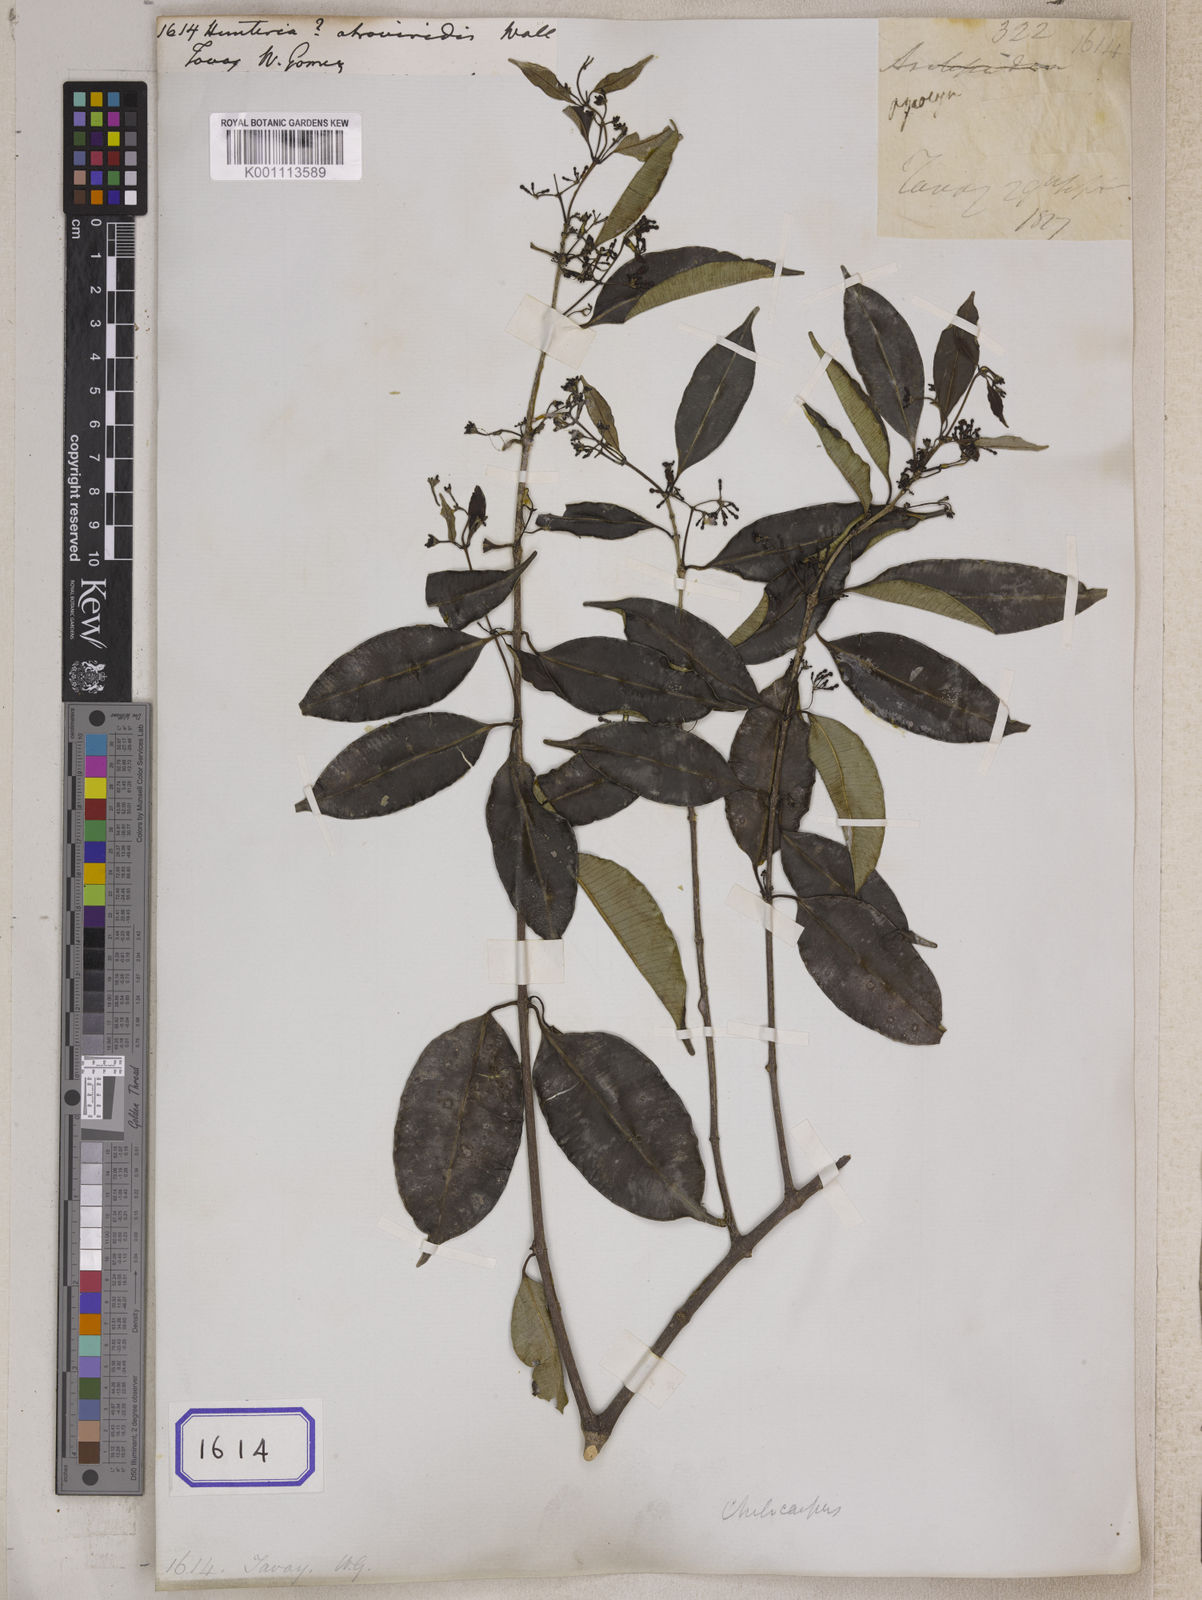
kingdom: Plantae
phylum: Tracheophyta
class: Magnoliopsida
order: Gentianales
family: Apocynaceae
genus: Hunteria
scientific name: Hunteria
